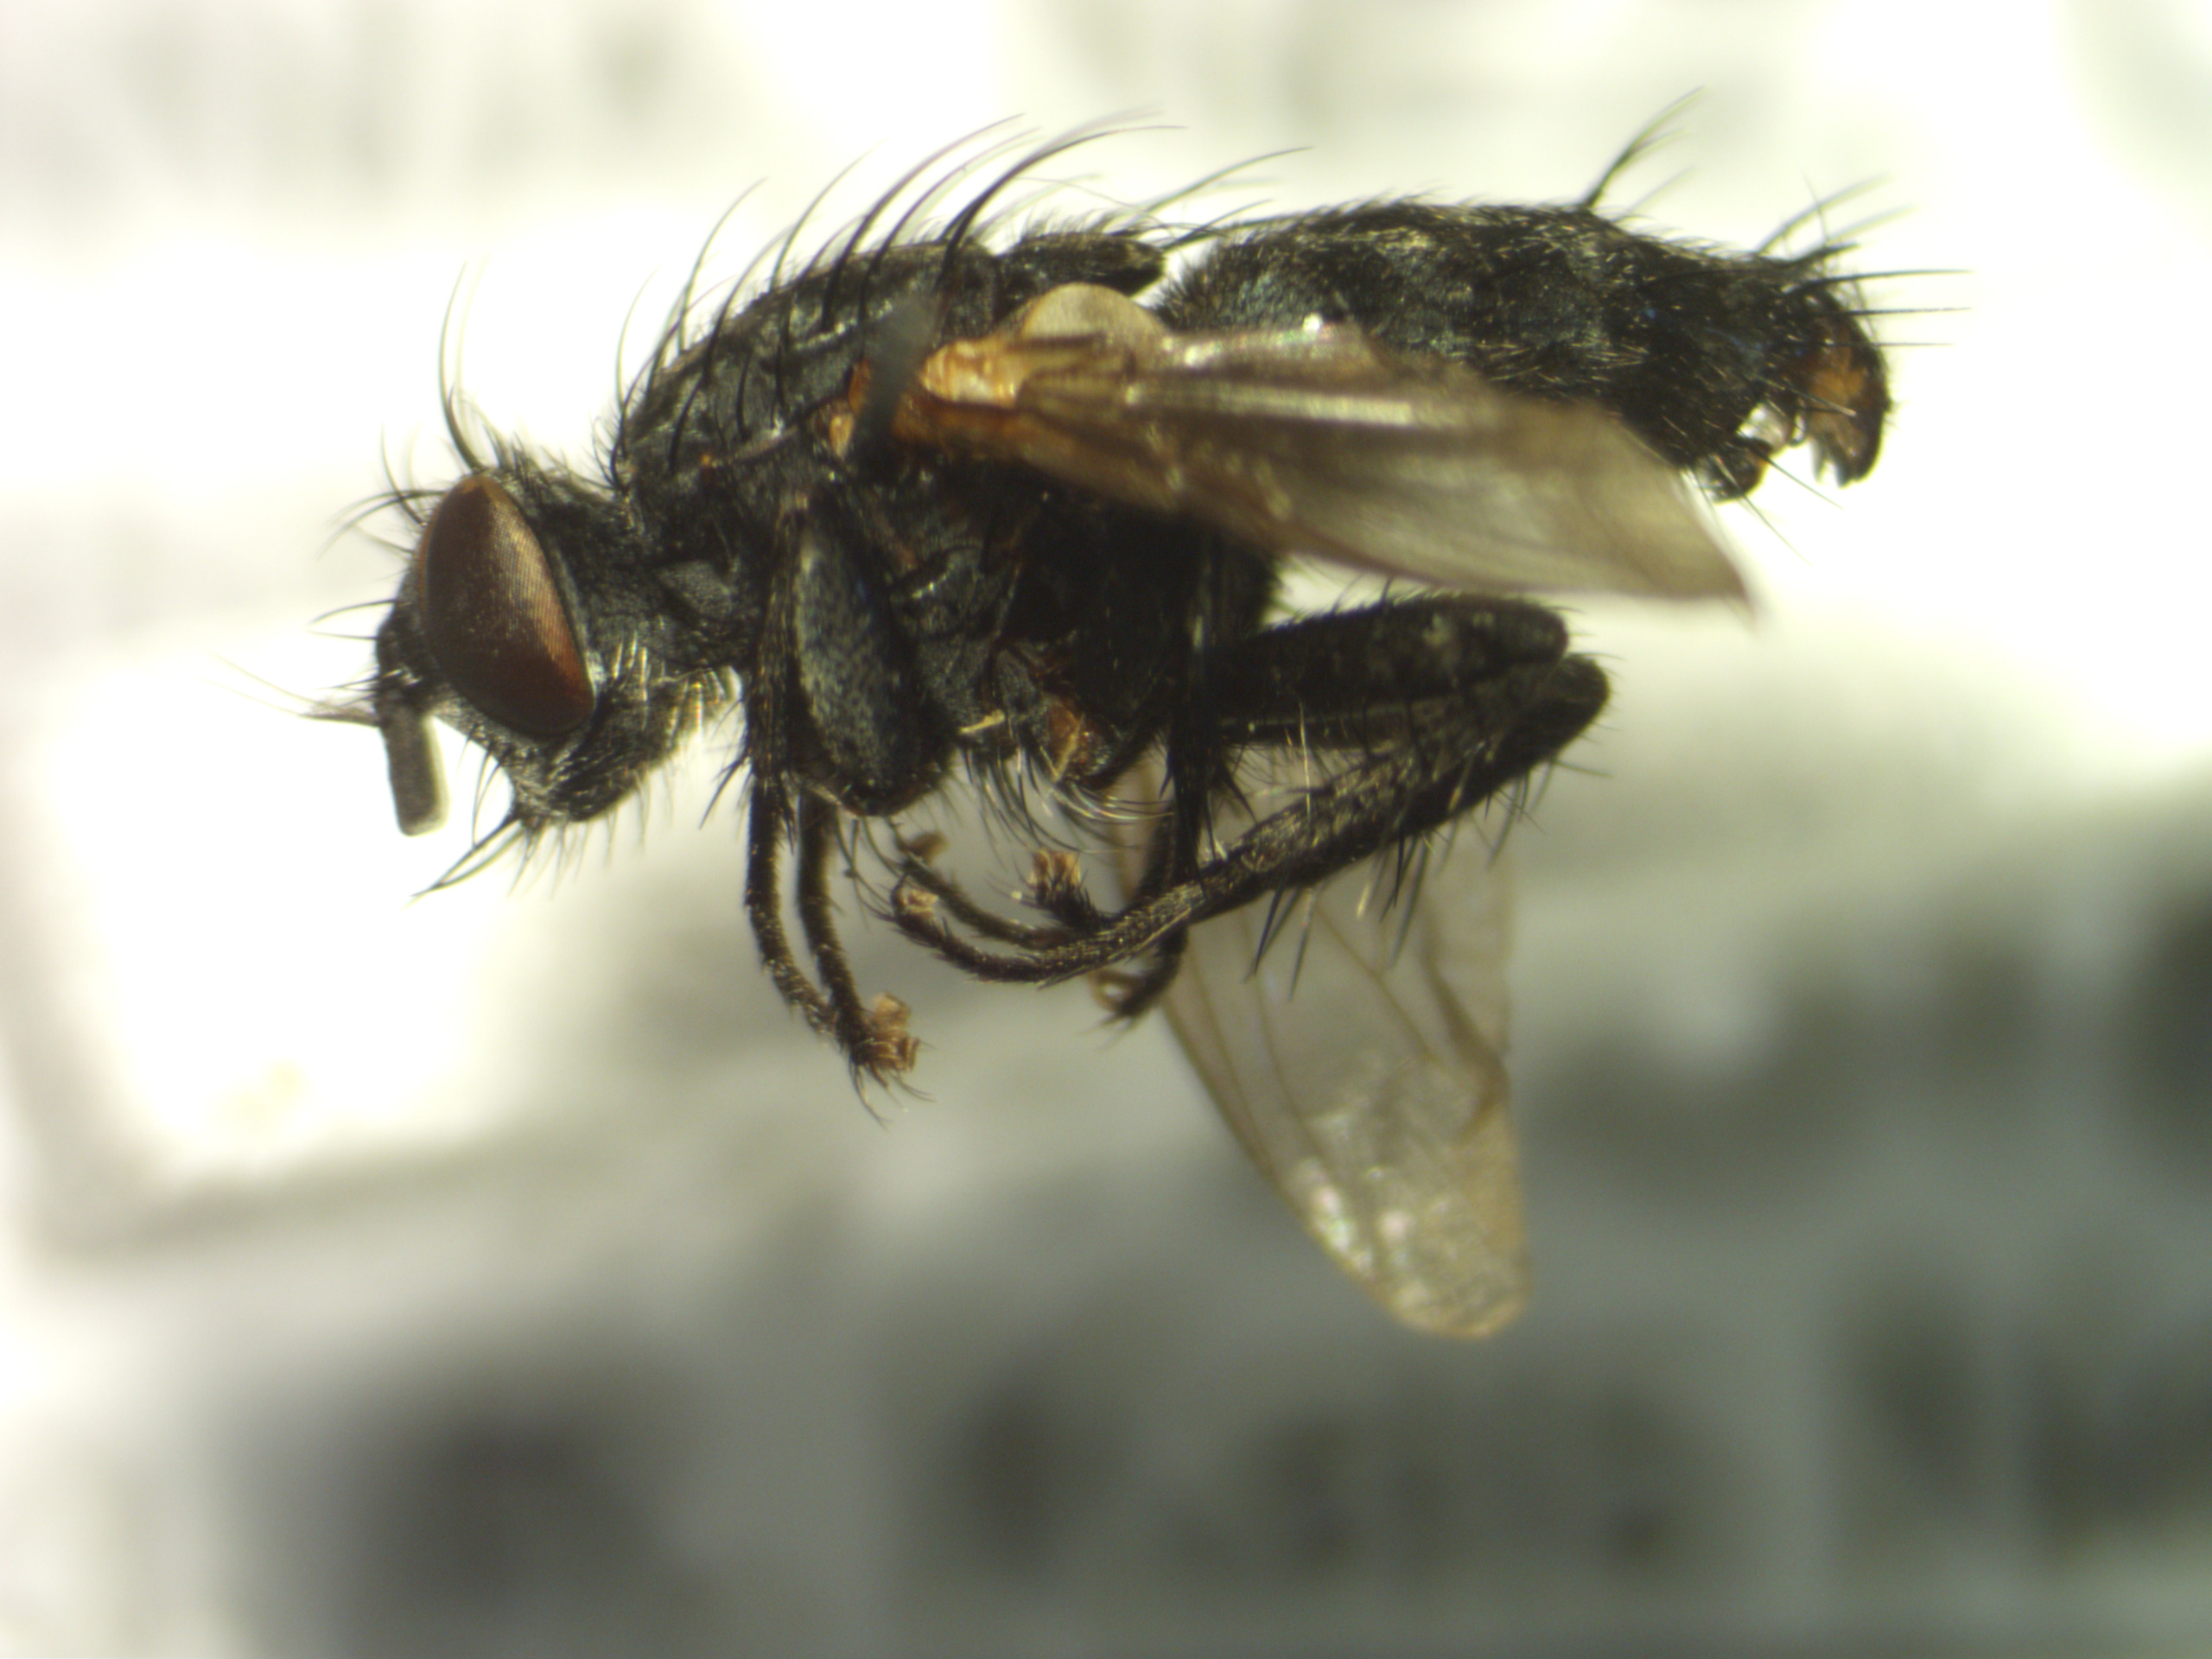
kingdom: Animalia
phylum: Arthropoda
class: Insecta
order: Diptera
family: Sarcophagidae
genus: Sarcophaga
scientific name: Sarcophaga nigriventris
